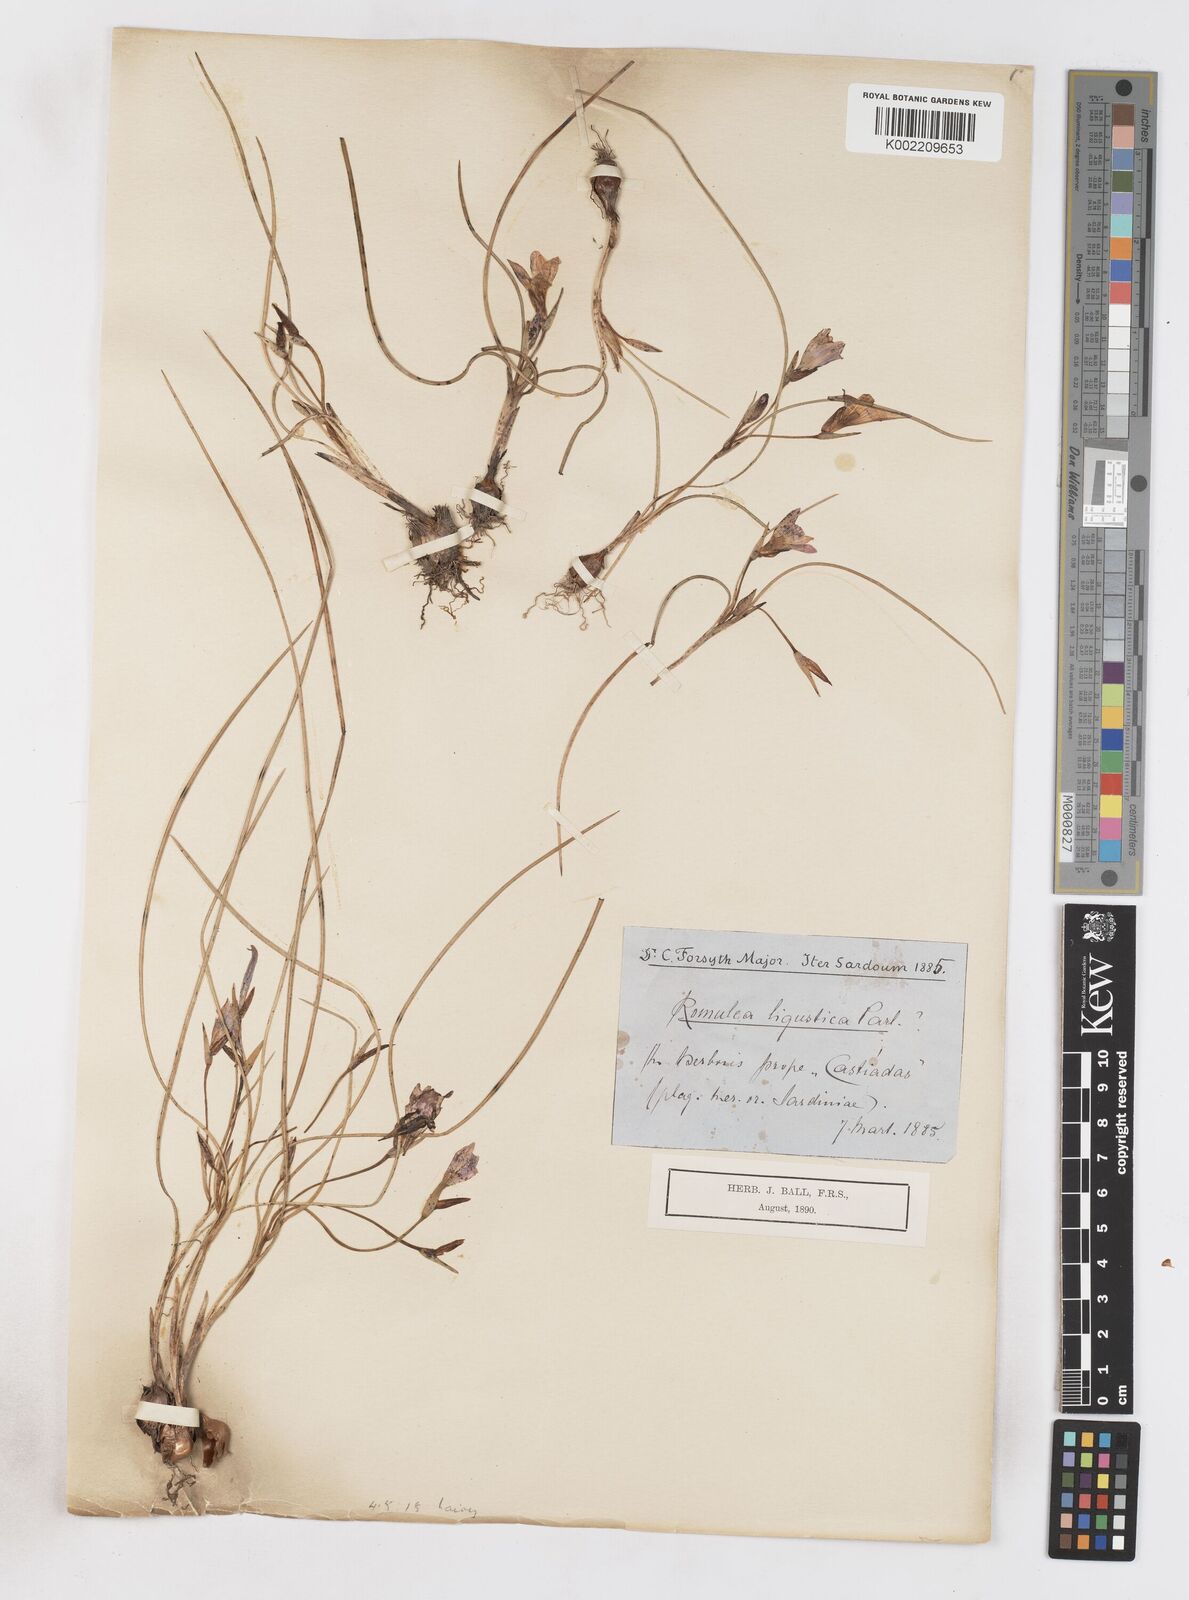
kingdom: Plantae
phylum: Tracheophyta
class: Liliopsida
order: Asparagales
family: Iridaceae
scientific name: Iridaceae
